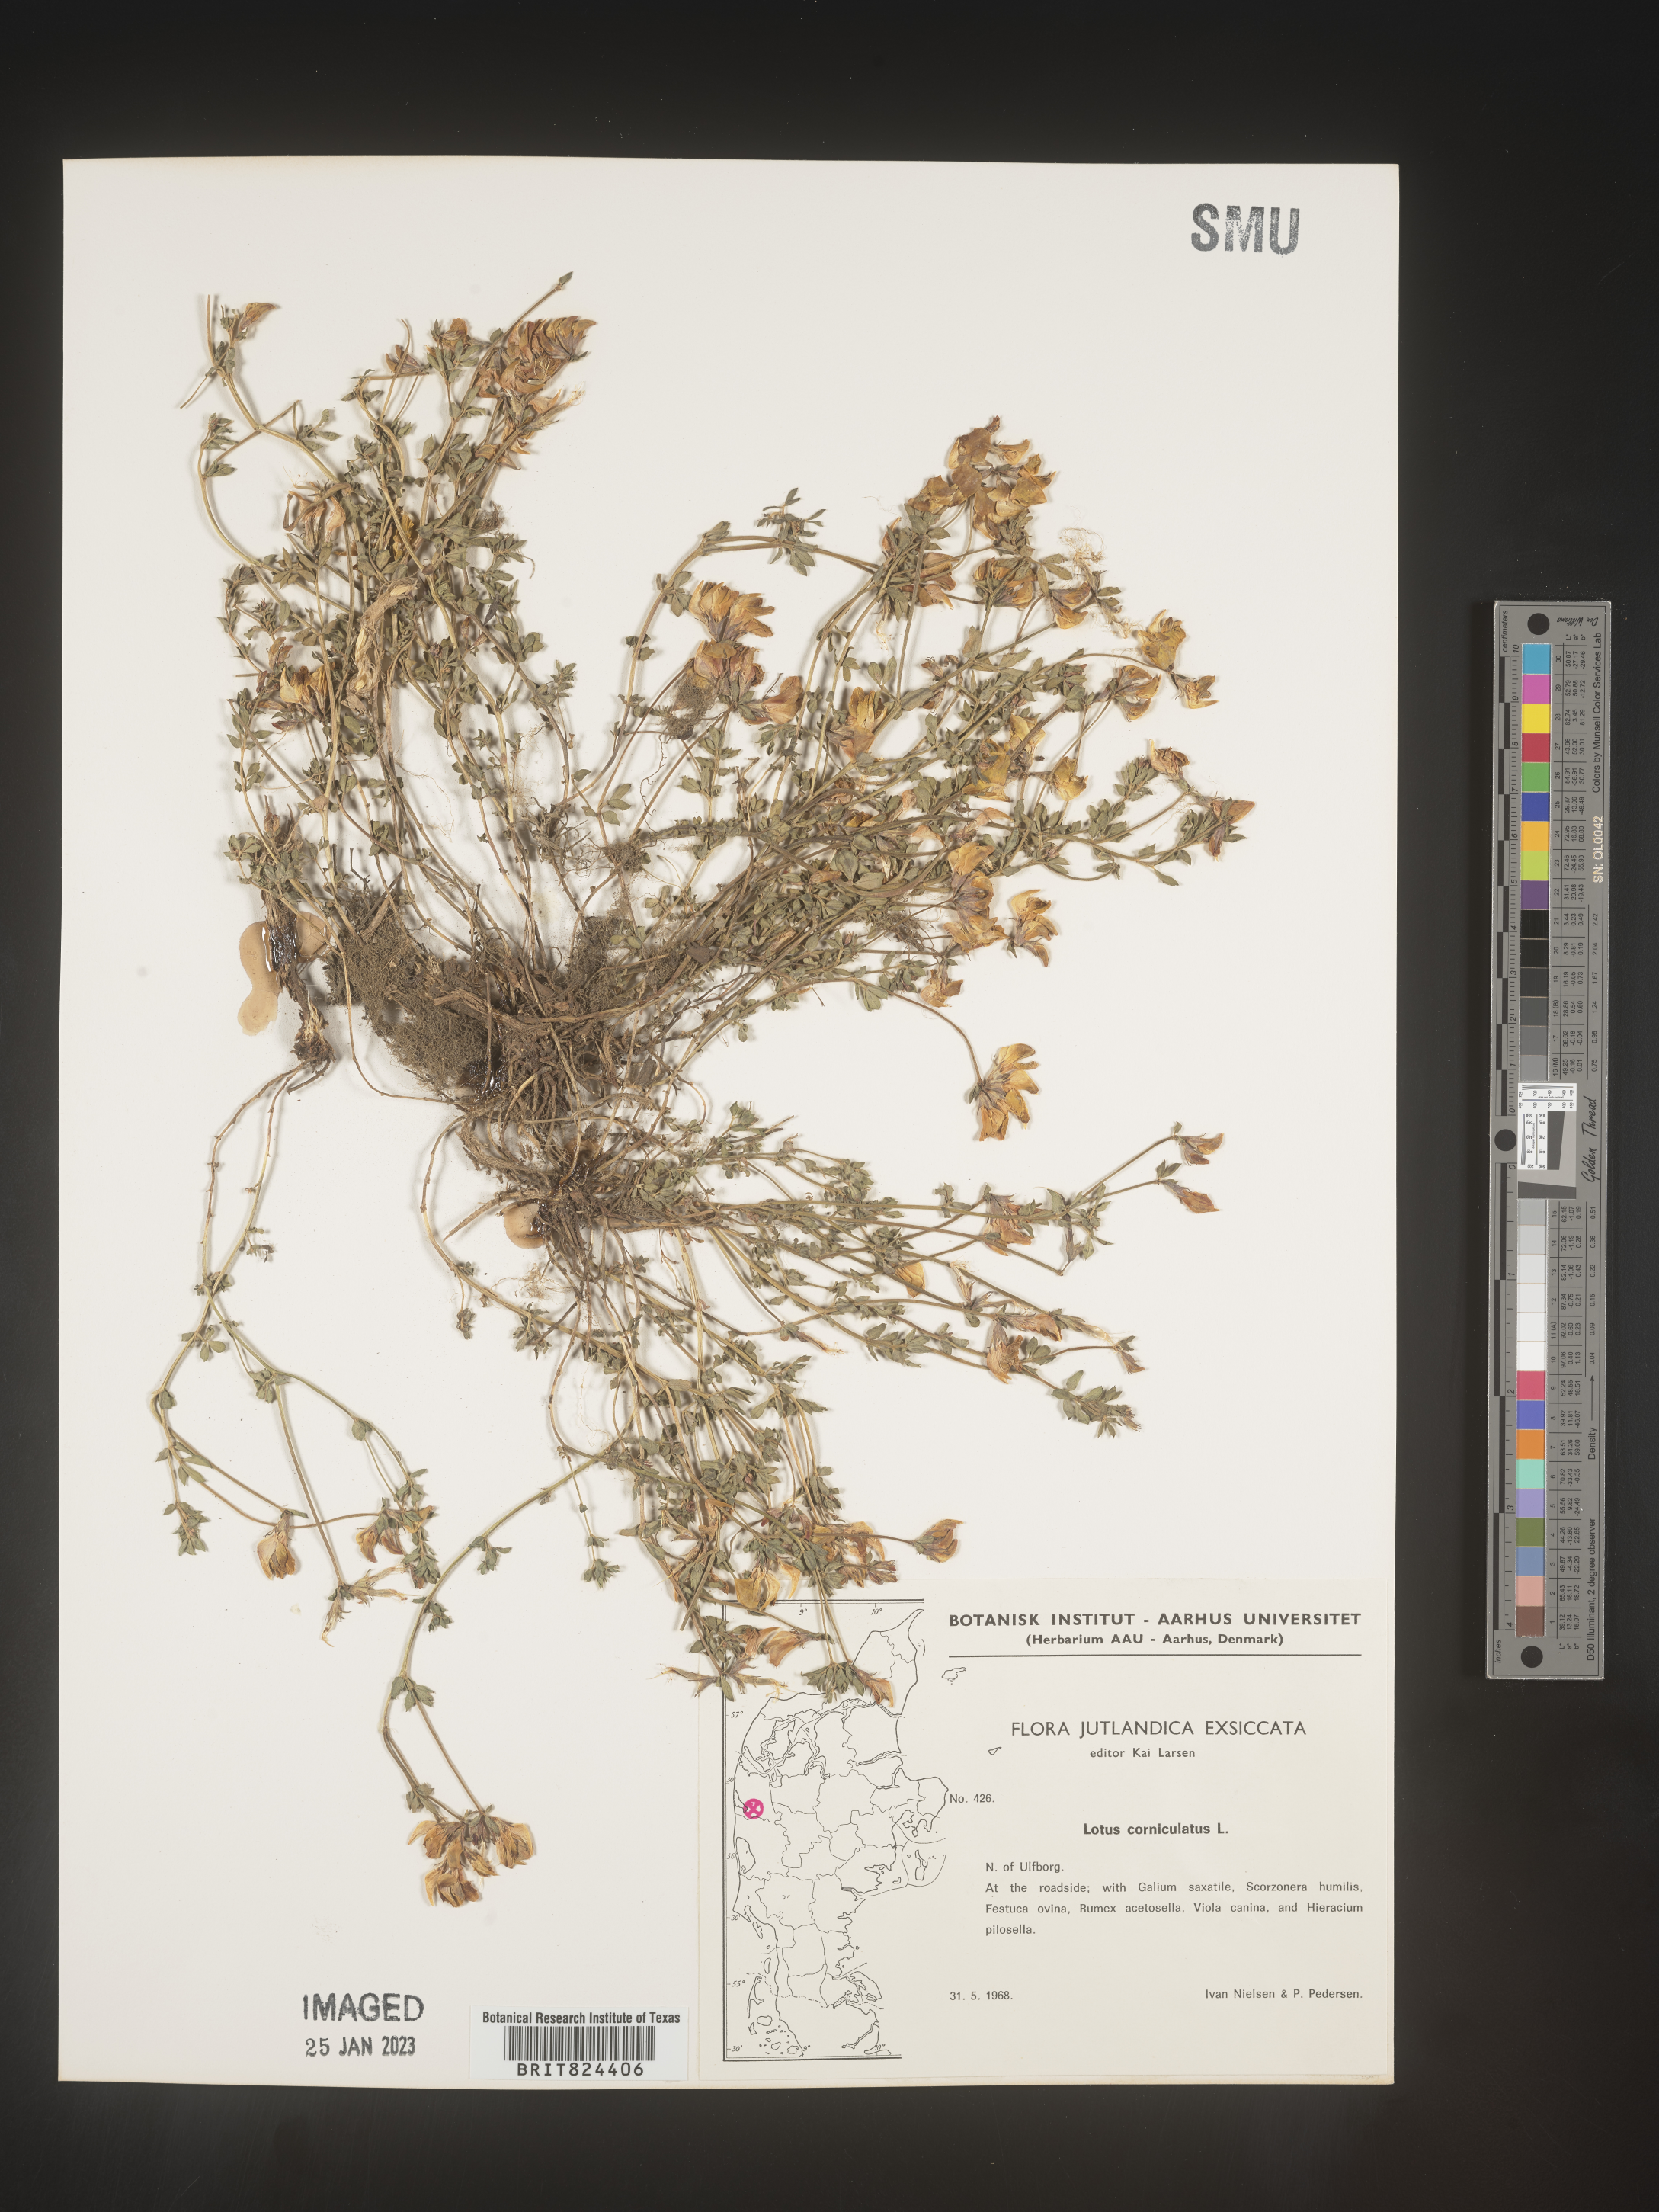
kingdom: Plantae
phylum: Tracheophyta
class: Magnoliopsida
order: Fabales
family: Fabaceae
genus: Lotus
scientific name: Lotus
